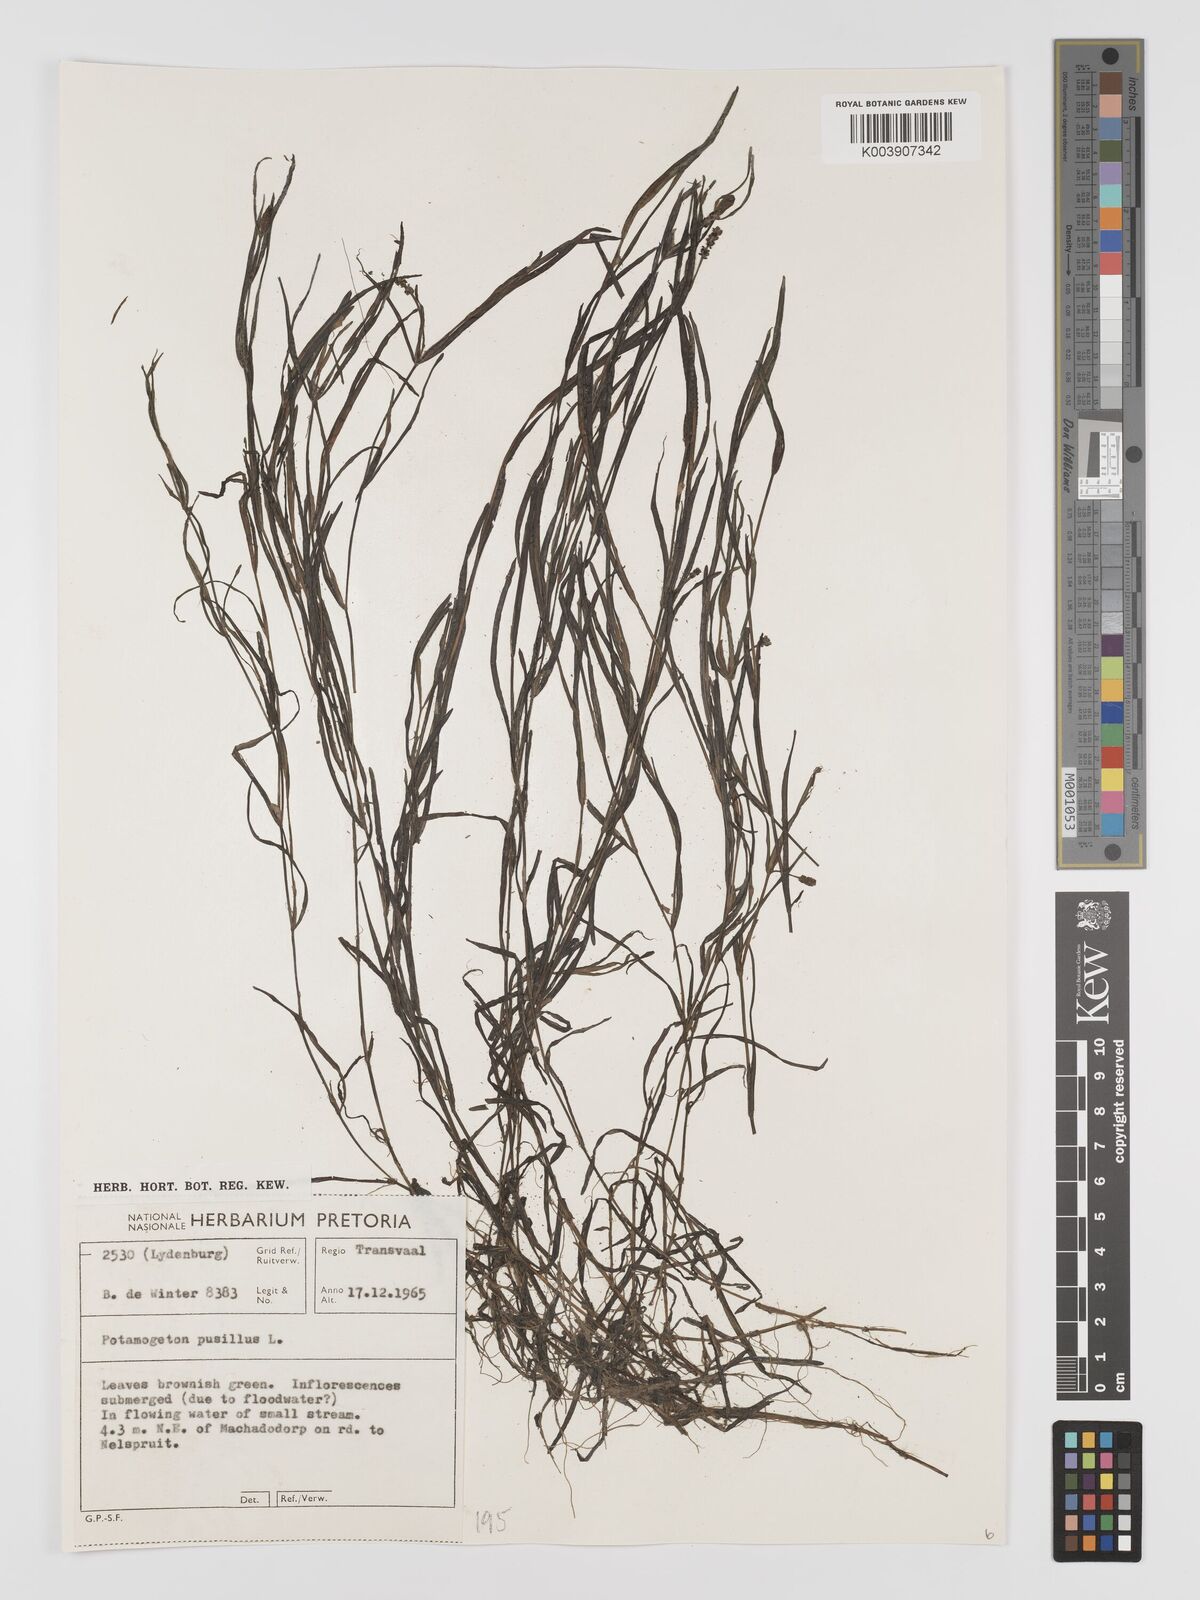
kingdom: Plantae
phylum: Tracheophyta
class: Liliopsida
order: Alismatales
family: Potamogetonaceae
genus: Potamogeton
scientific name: Potamogeton pusillus
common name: Lesser pondweed
